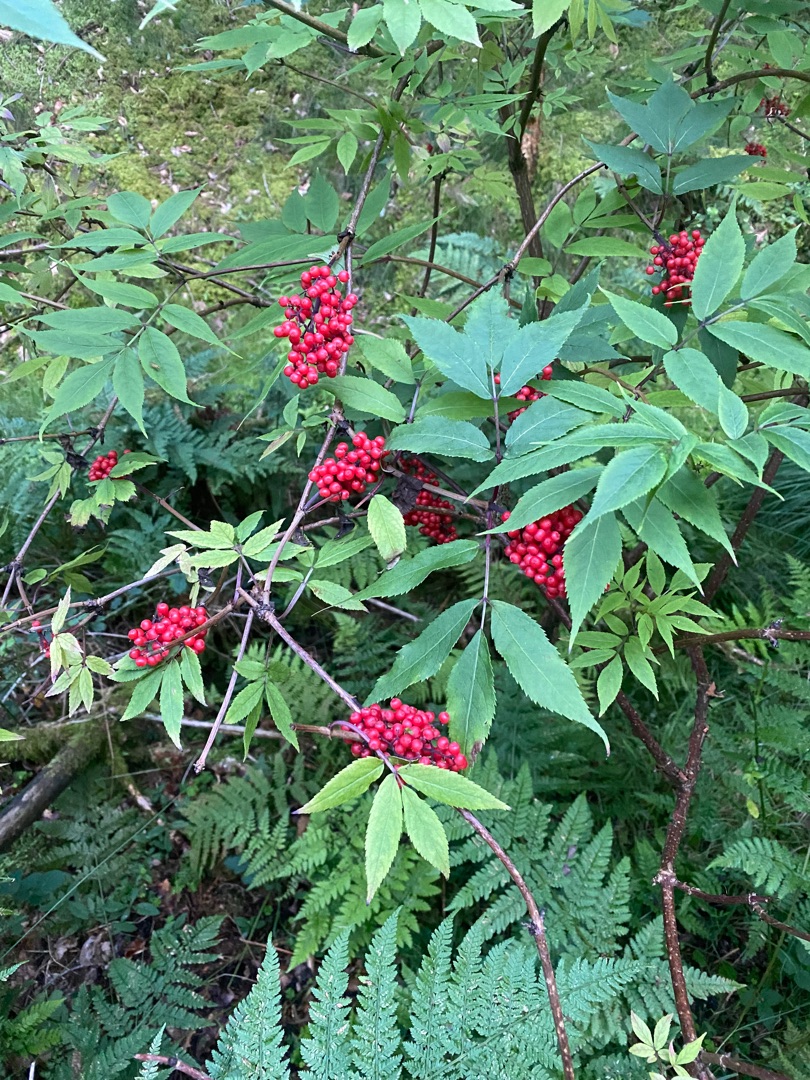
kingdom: Plantae
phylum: Tracheophyta
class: Magnoliopsida
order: Dipsacales
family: Viburnaceae
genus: Sambucus
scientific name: Sambucus racemosa
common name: Drue-hyld
